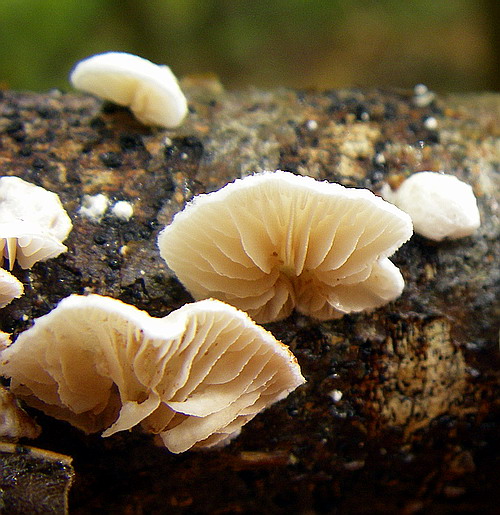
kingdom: Fungi
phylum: Basidiomycota
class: Agaricomycetes
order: Agaricales
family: Crepidotaceae
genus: Crepidotus
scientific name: Crepidotus cesatii
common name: almindelig muslingesvamp
